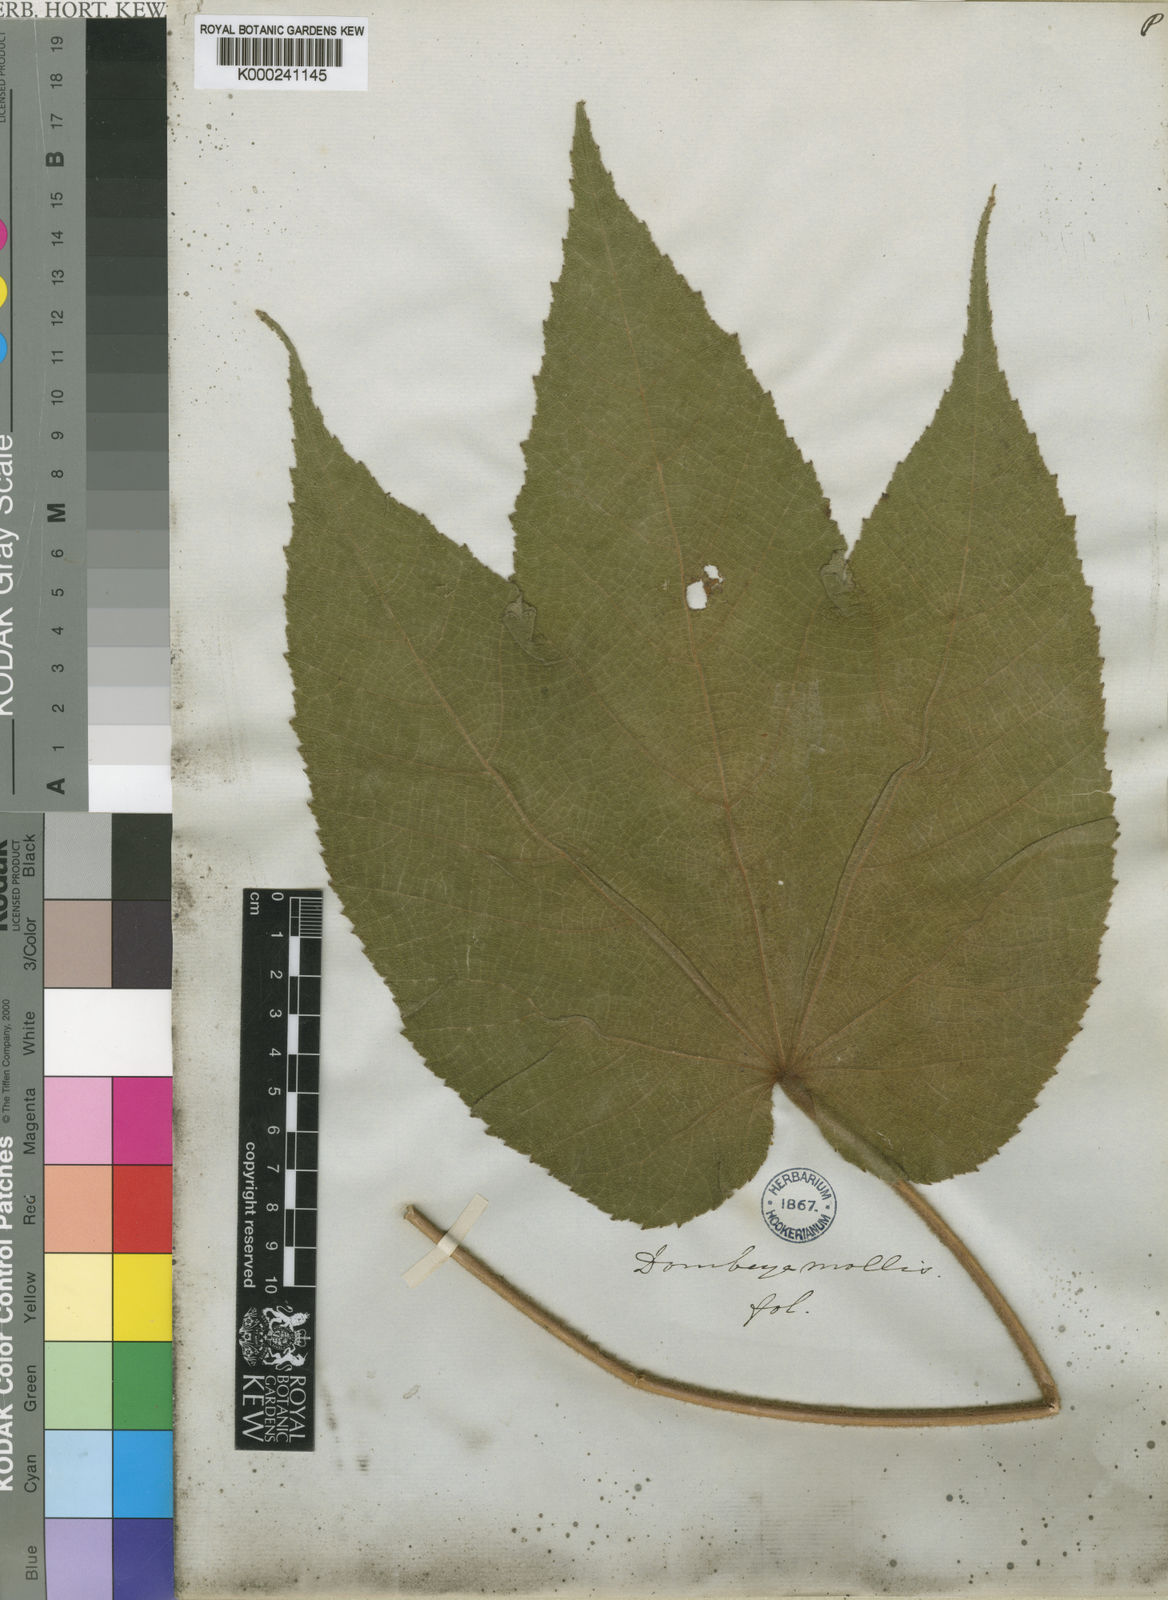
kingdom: Plantae
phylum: Tracheophyta
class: Magnoliopsida
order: Malvales
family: Malvaceae
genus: Dombeya
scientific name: Dombeya mollis
